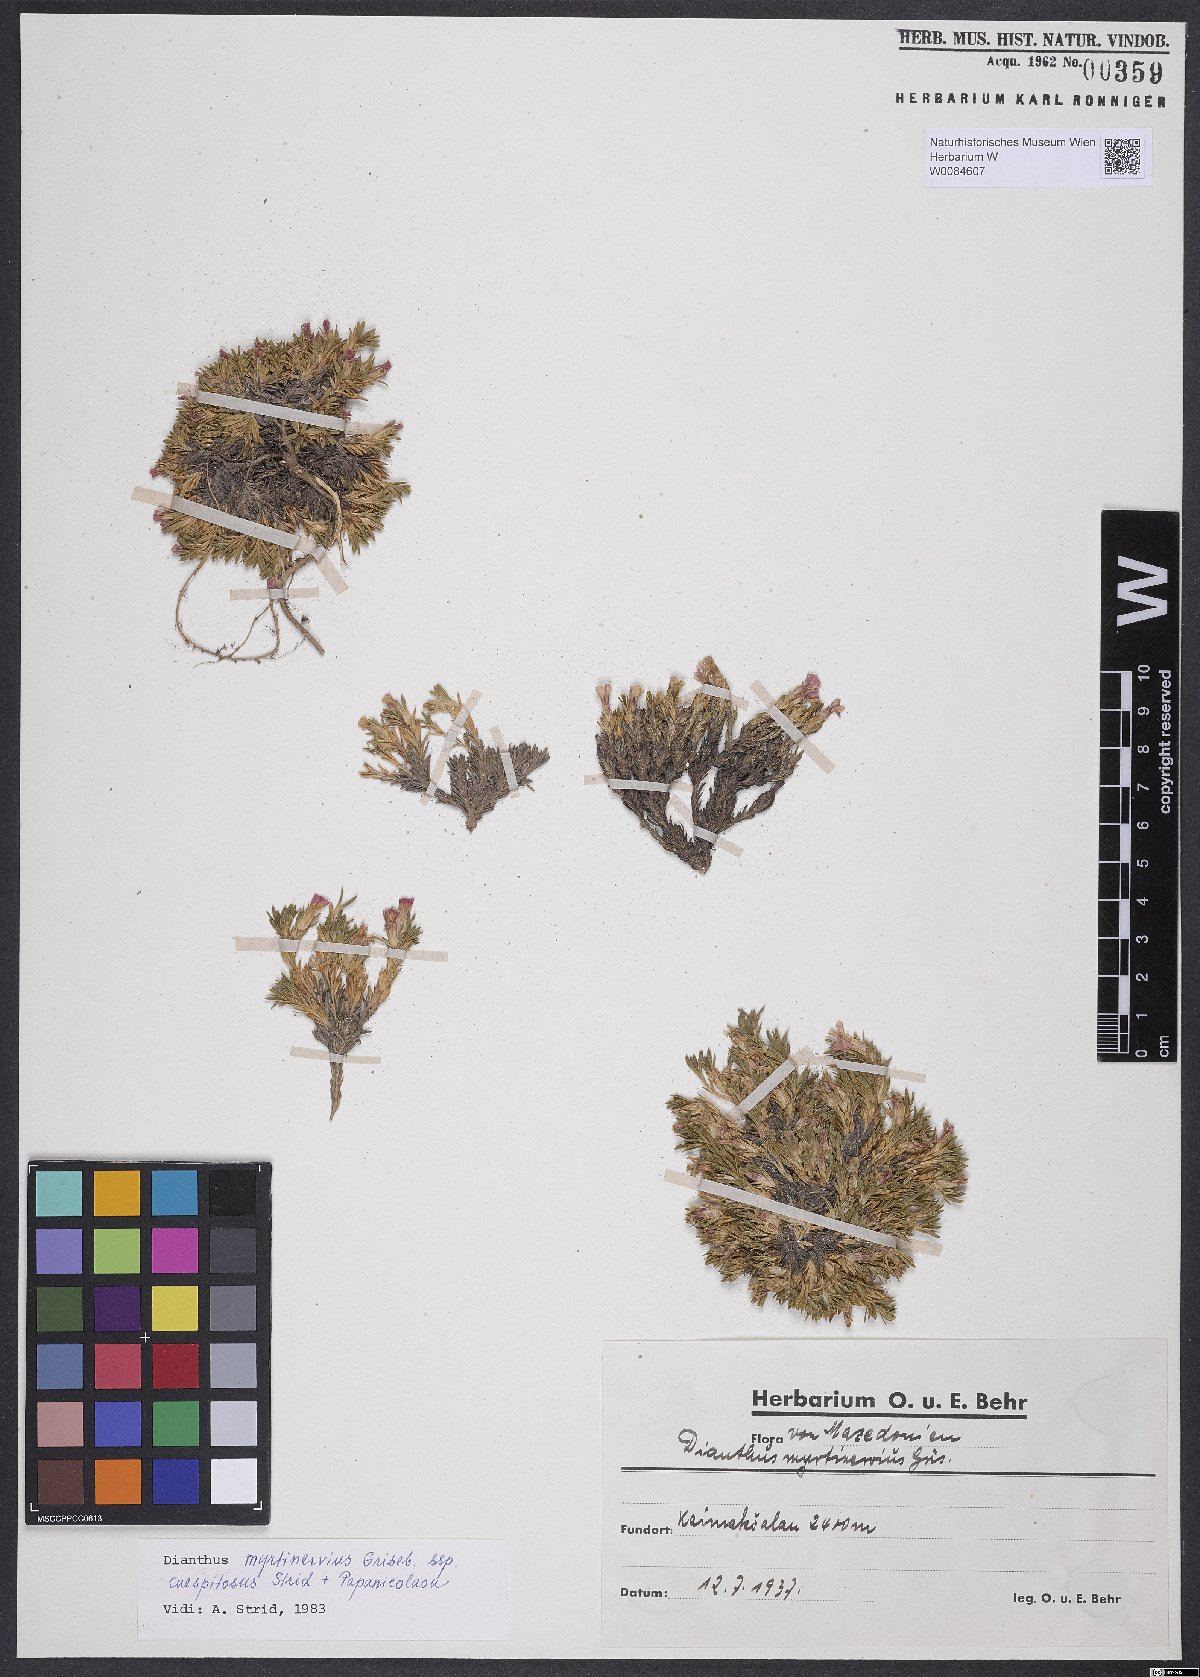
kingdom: Plantae
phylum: Tracheophyta
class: Magnoliopsida
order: Caryophyllales
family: Caryophyllaceae
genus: Dianthus
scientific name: Dianthus myrtinervius
